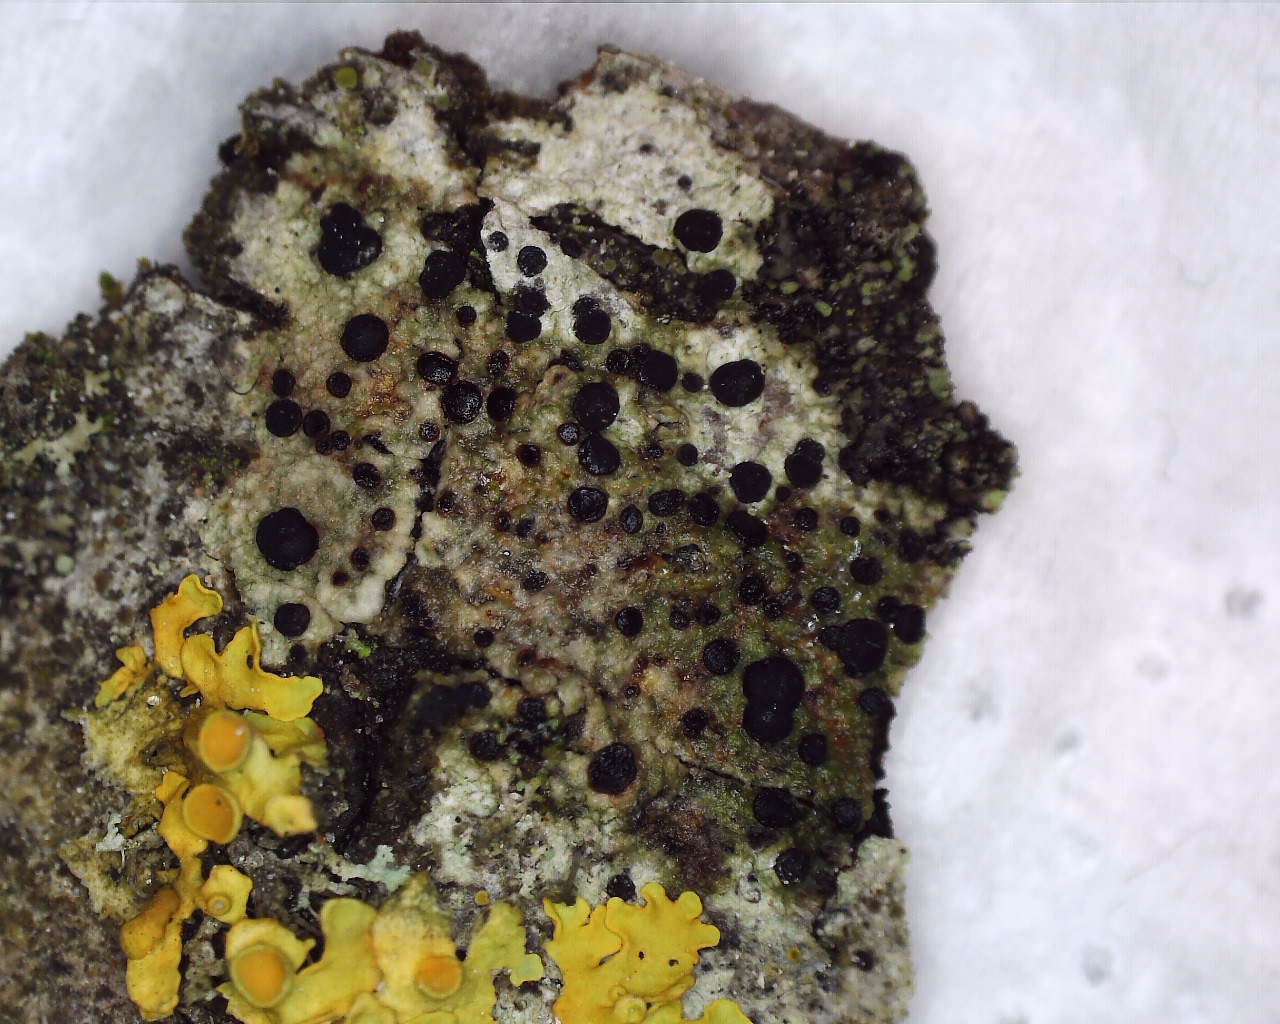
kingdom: Fungi
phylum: Ascomycota
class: Lecanoromycetes
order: Lecanorales
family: Lecanoraceae
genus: Lecidella
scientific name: Lecidella euphorea
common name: vortet skivelav
